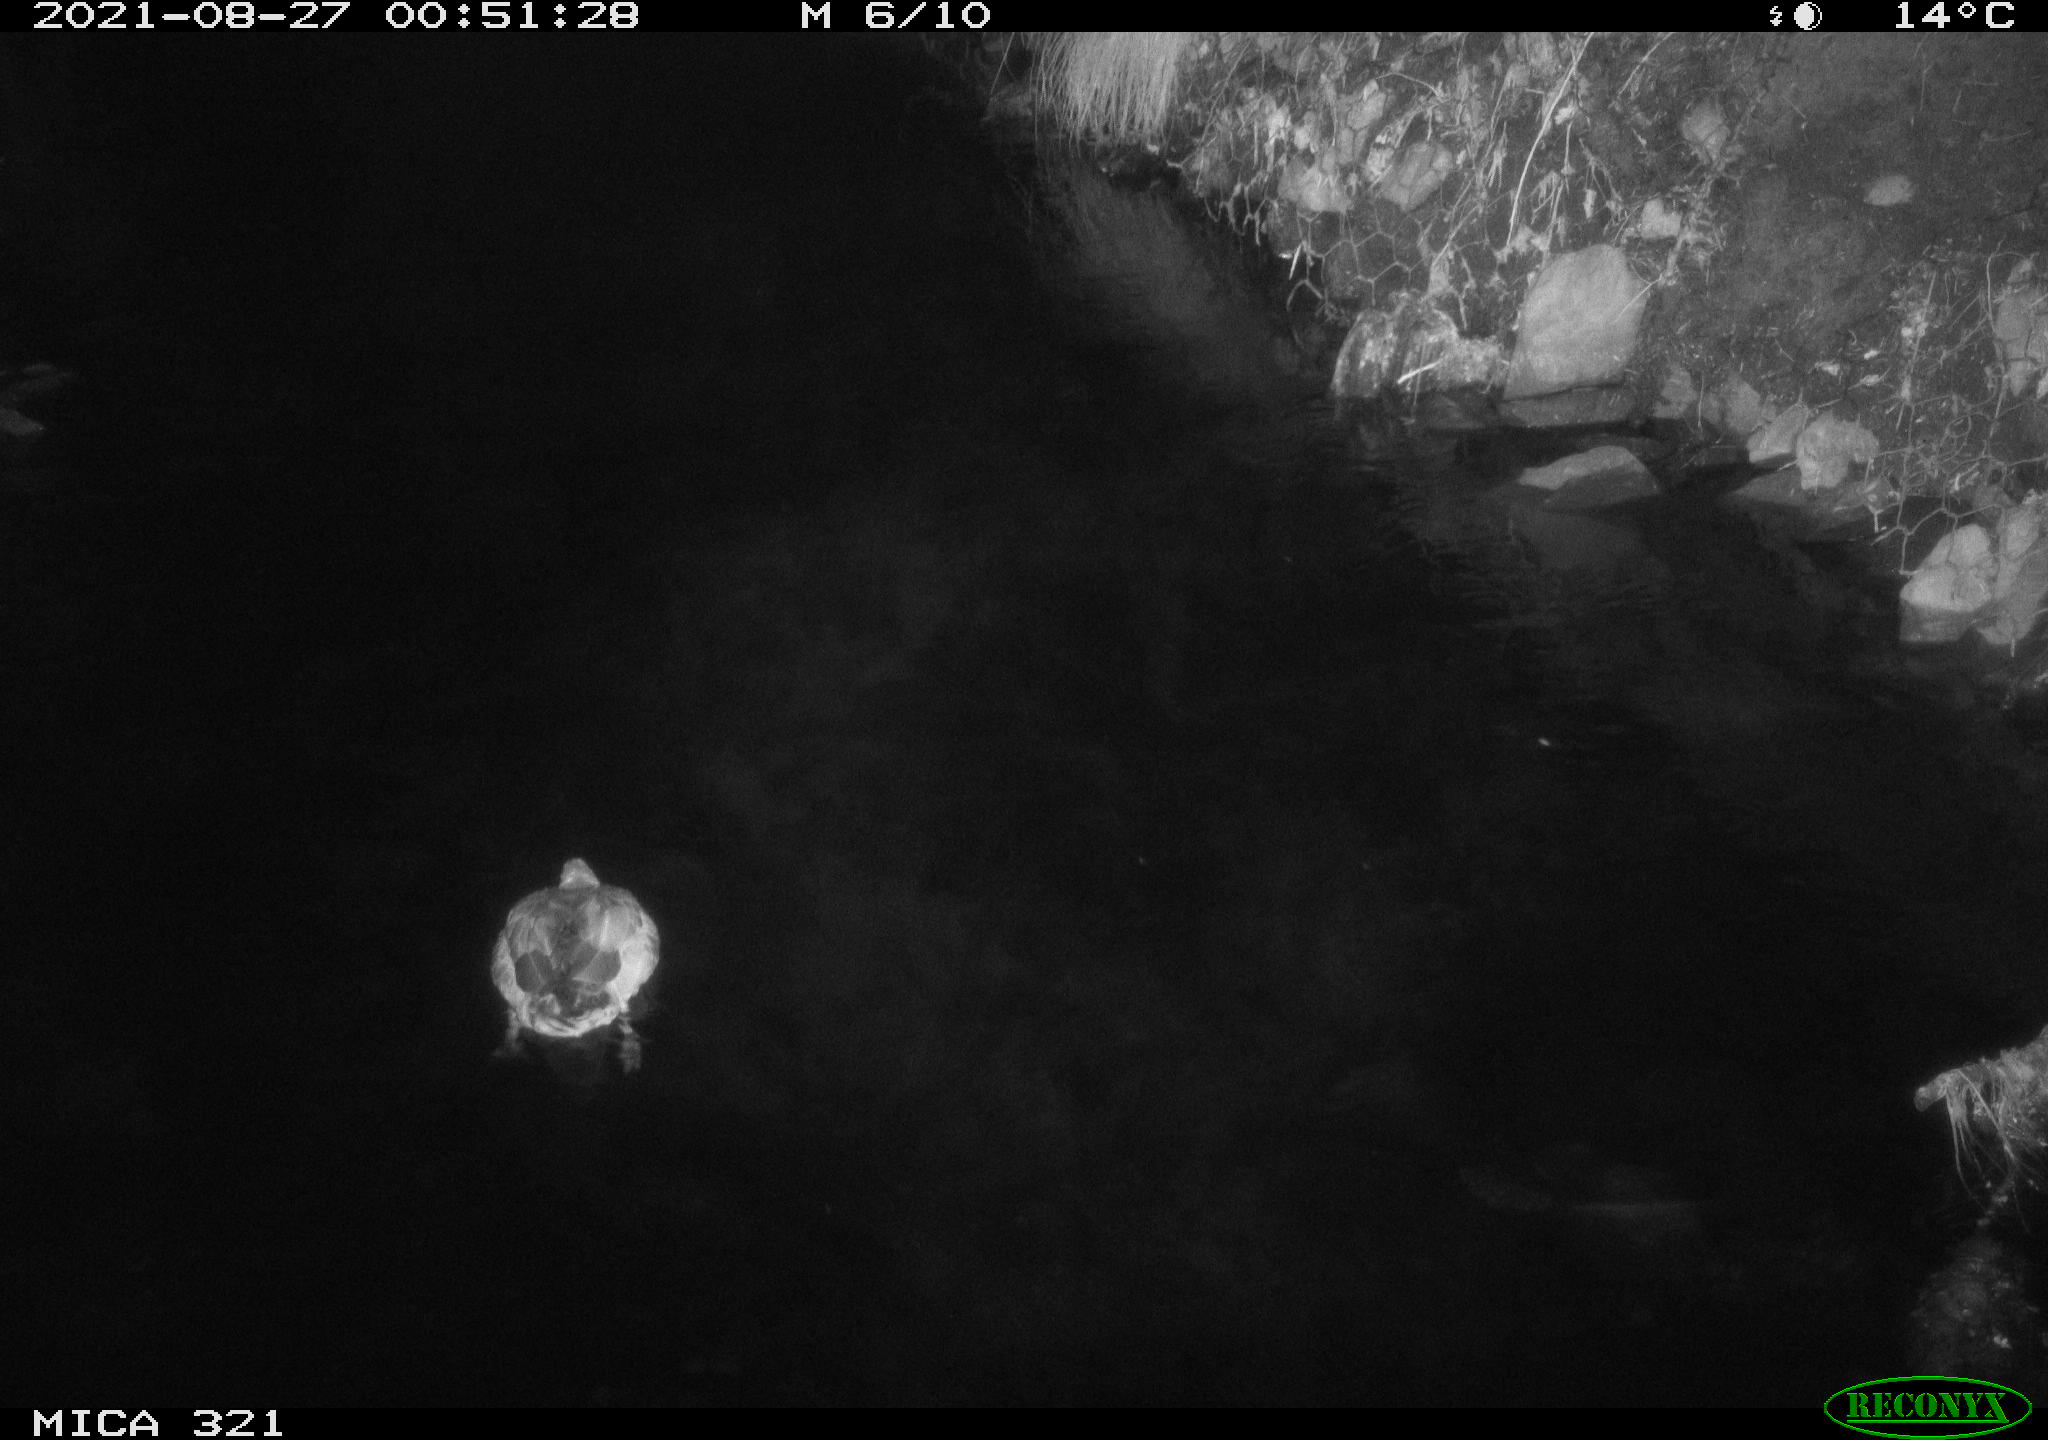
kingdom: Animalia
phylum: Chordata
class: Aves
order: Anseriformes
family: Anatidae
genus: Anas
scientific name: Anas platyrhynchos
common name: Mallard
